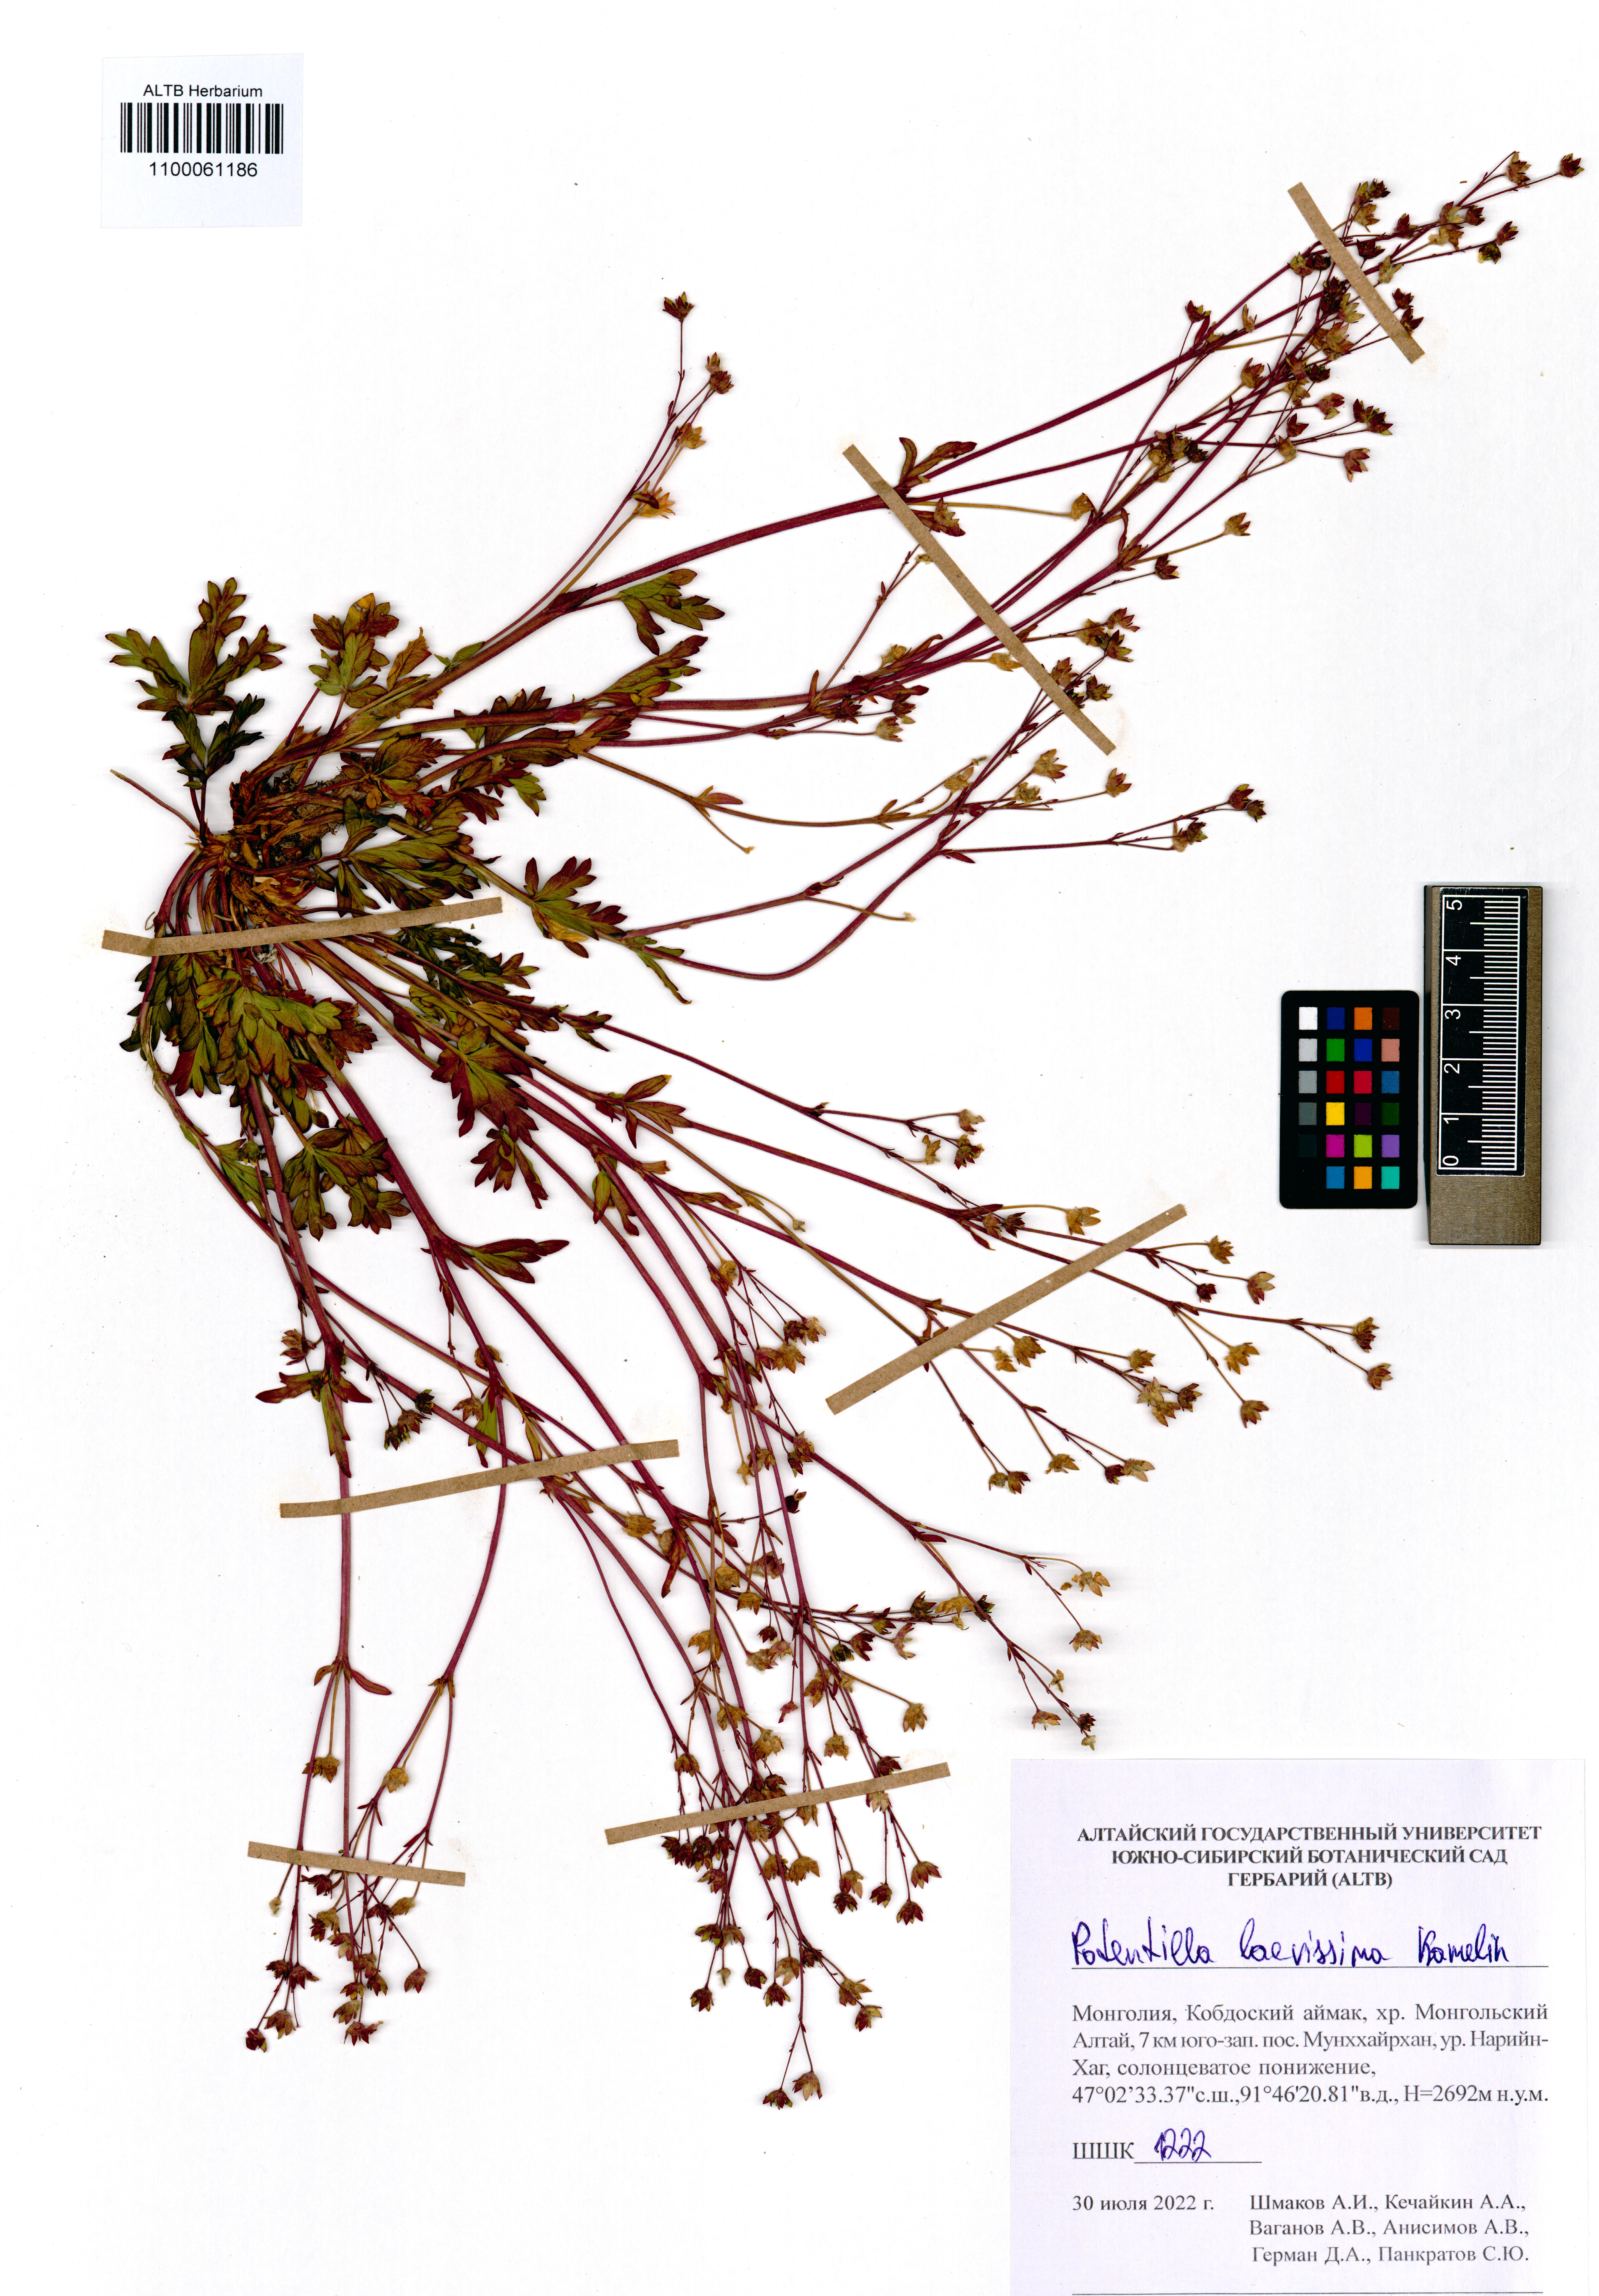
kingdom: Plantae
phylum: Tracheophyta
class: Magnoliopsida
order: Rosales
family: Rosaceae
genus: Potentilla
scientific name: Potentilla laevissima
